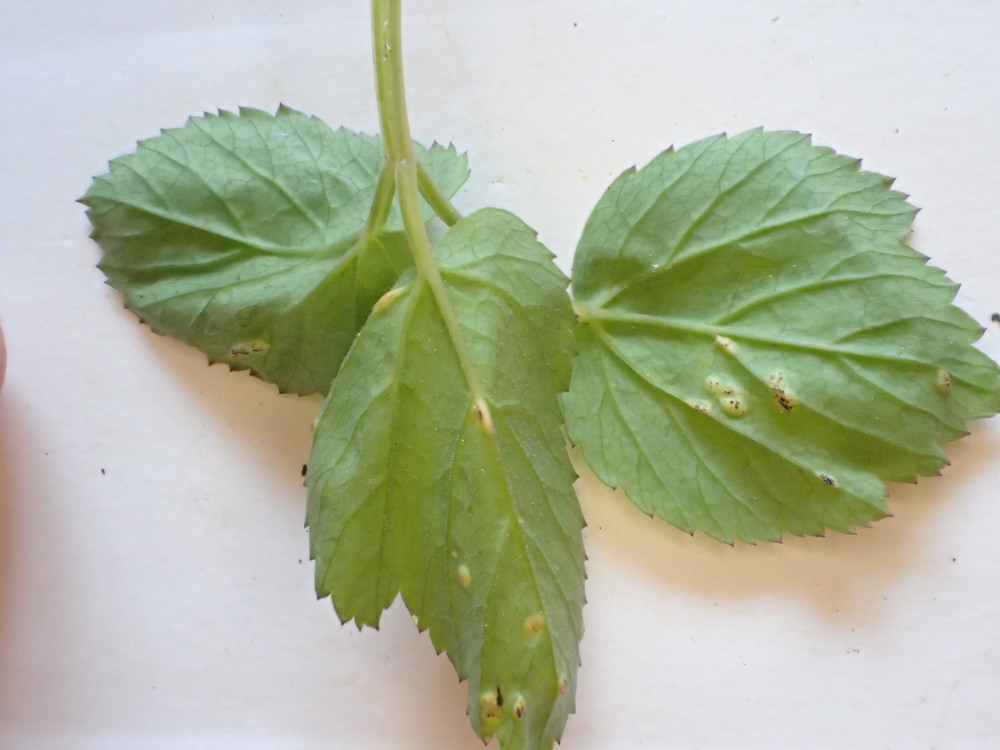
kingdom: Fungi
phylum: Basidiomycota
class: Pucciniomycetes
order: Pucciniales
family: Pucciniaceae
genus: Puccinia
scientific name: Puccinia
